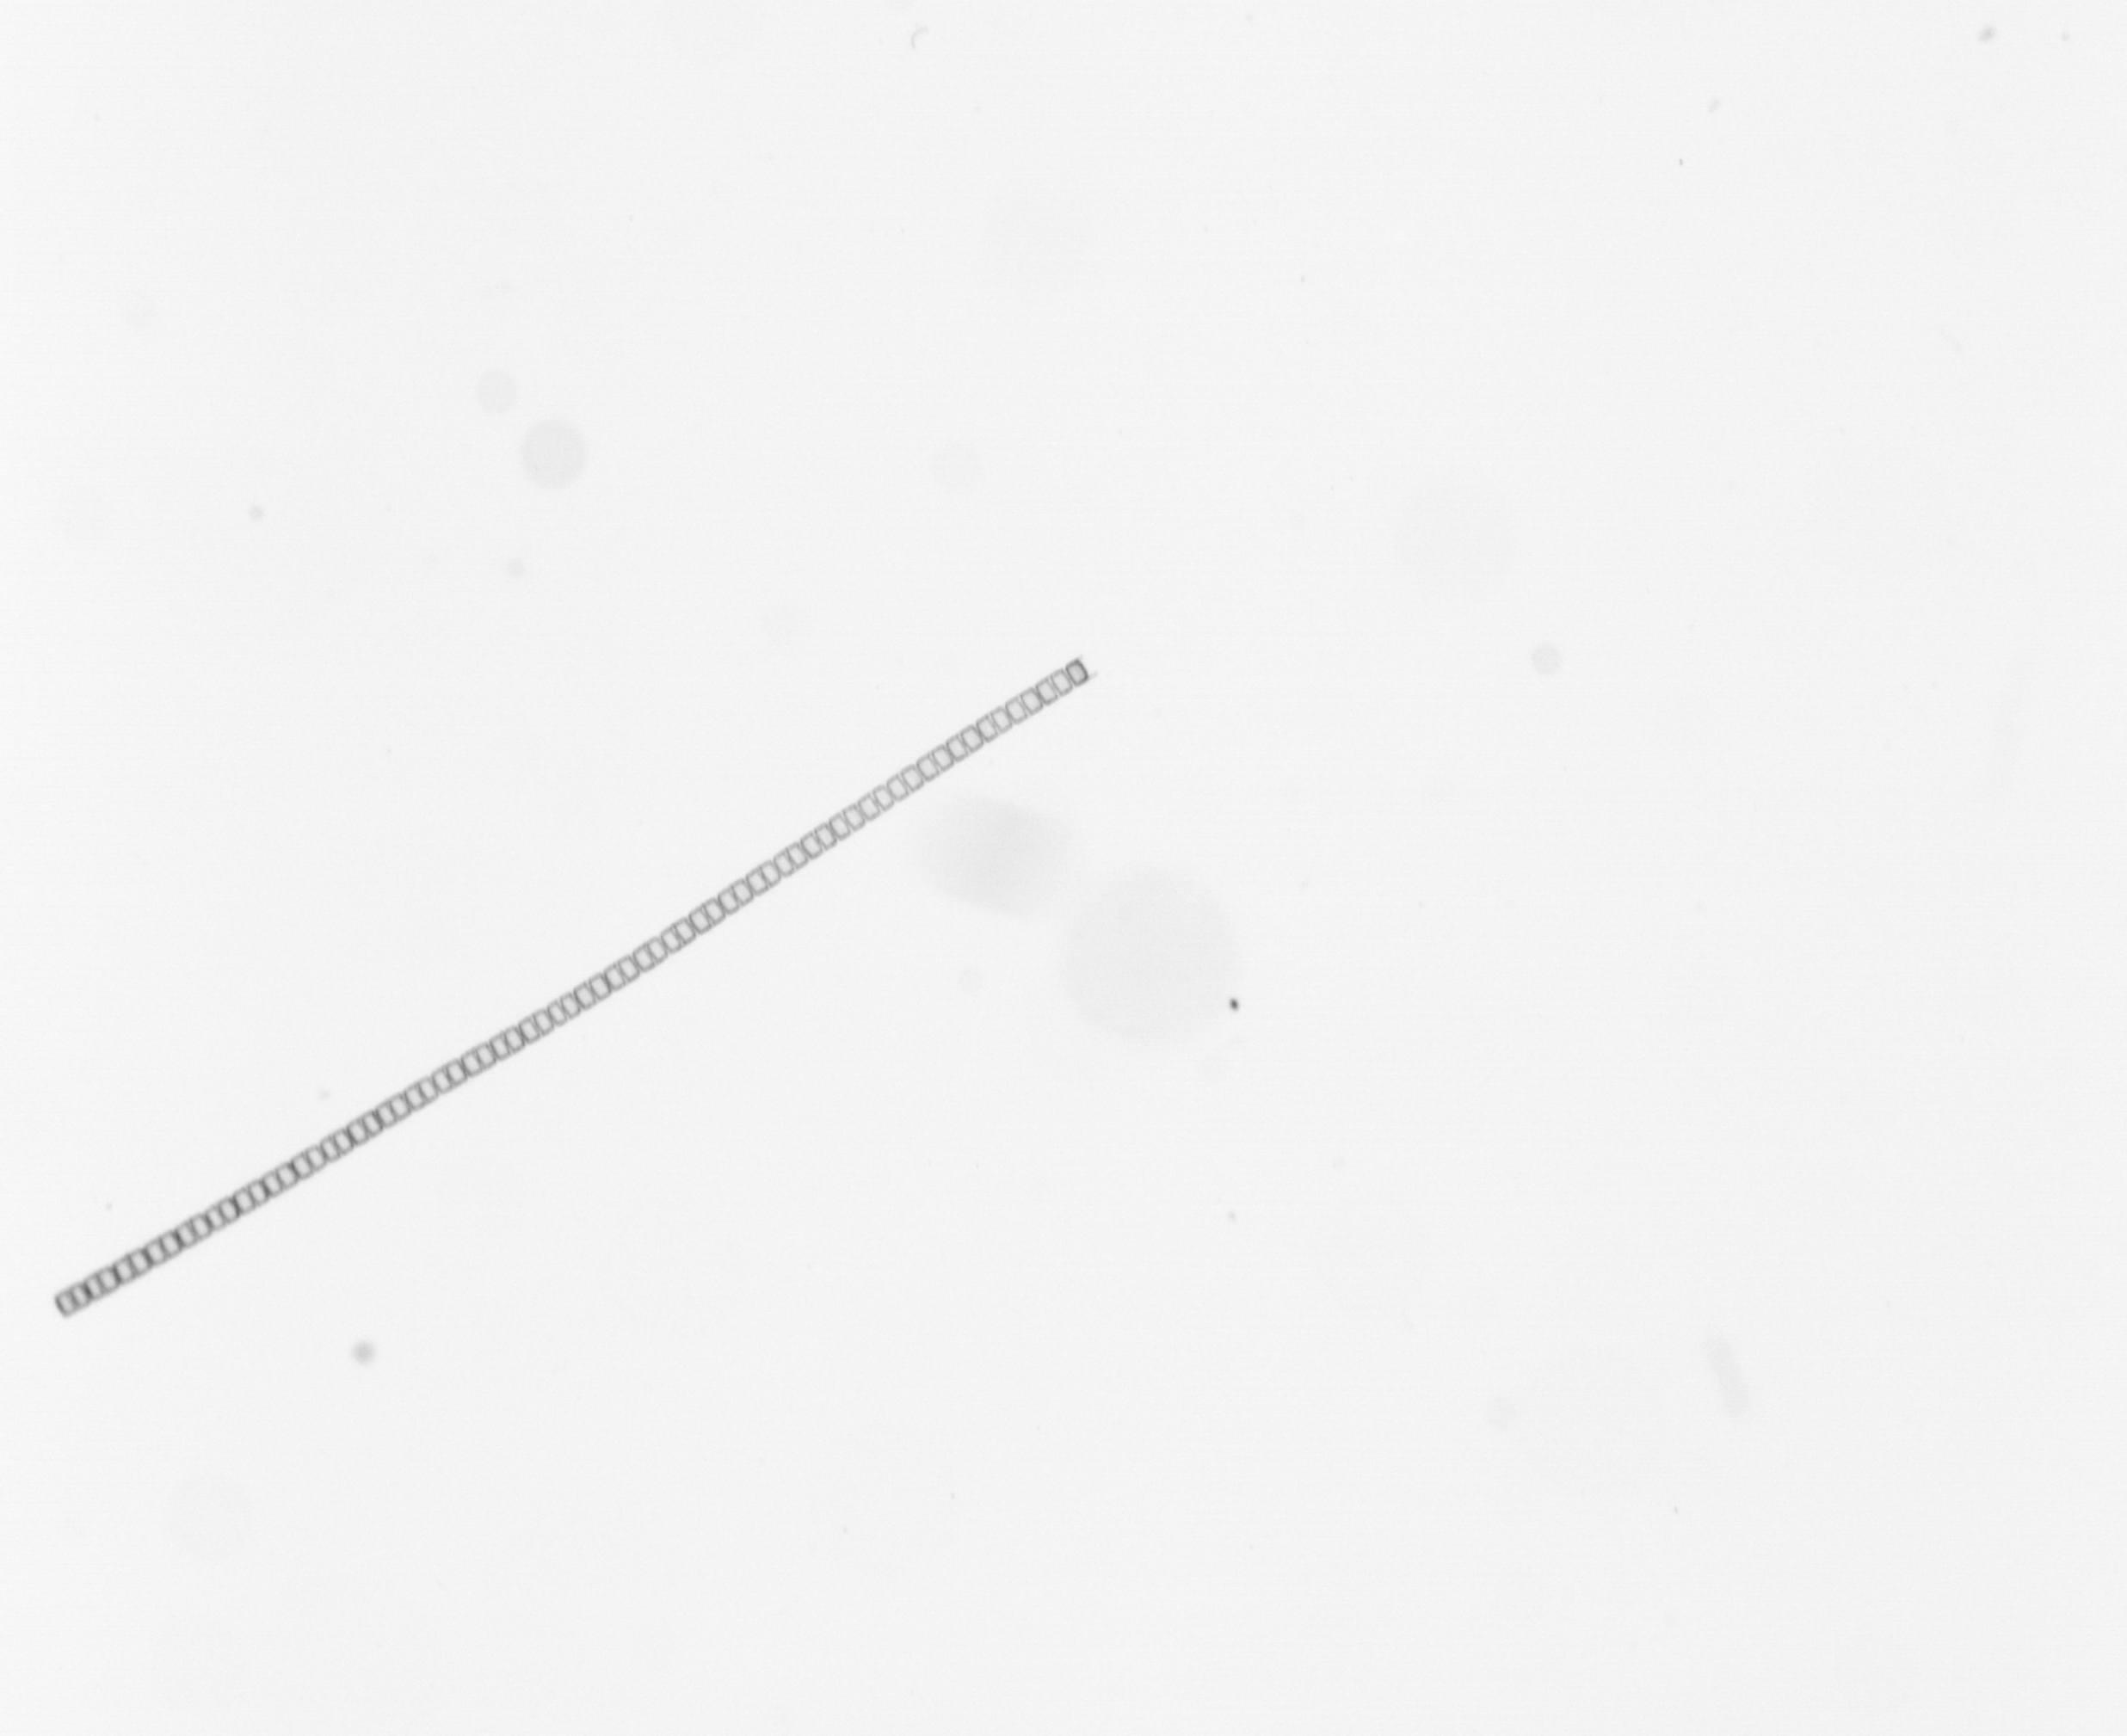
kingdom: Chromista
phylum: Ochrophyta
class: Bacillariophyceae
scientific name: Bacillariophyceae
